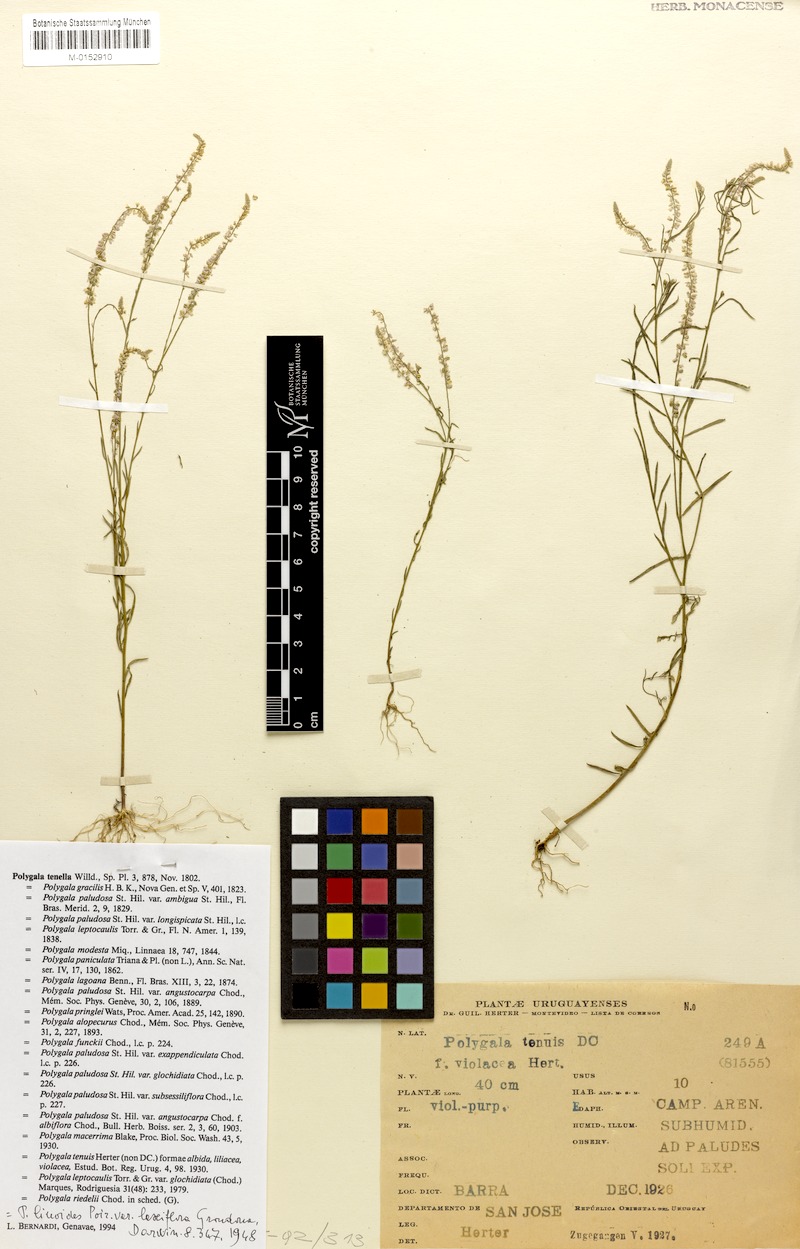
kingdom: Plantae
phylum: Tracheophyta
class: Magnoliopsida
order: Fabales
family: Polygalaceae
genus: Polygala
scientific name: Polygala tenella
